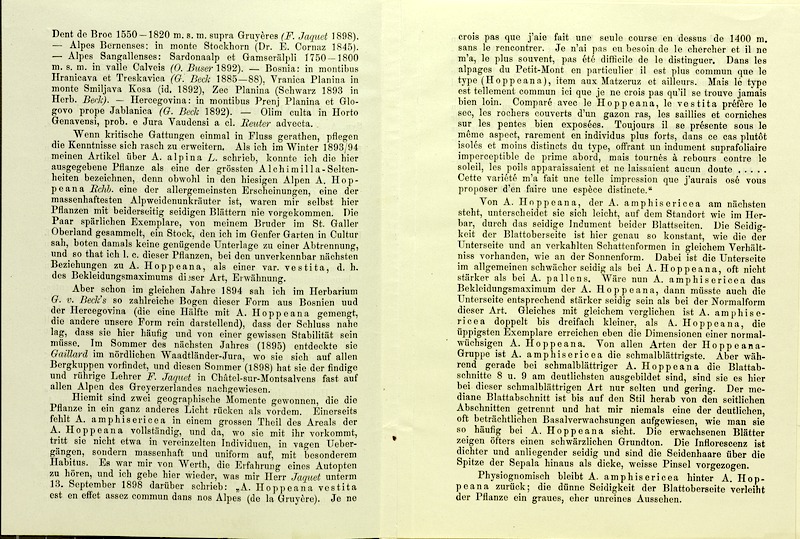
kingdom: Plantae
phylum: Tracheophyta
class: Magnoliopsida
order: Rosales
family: Rosaceae
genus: Alchemilla
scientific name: Alchemilla amphisericea
